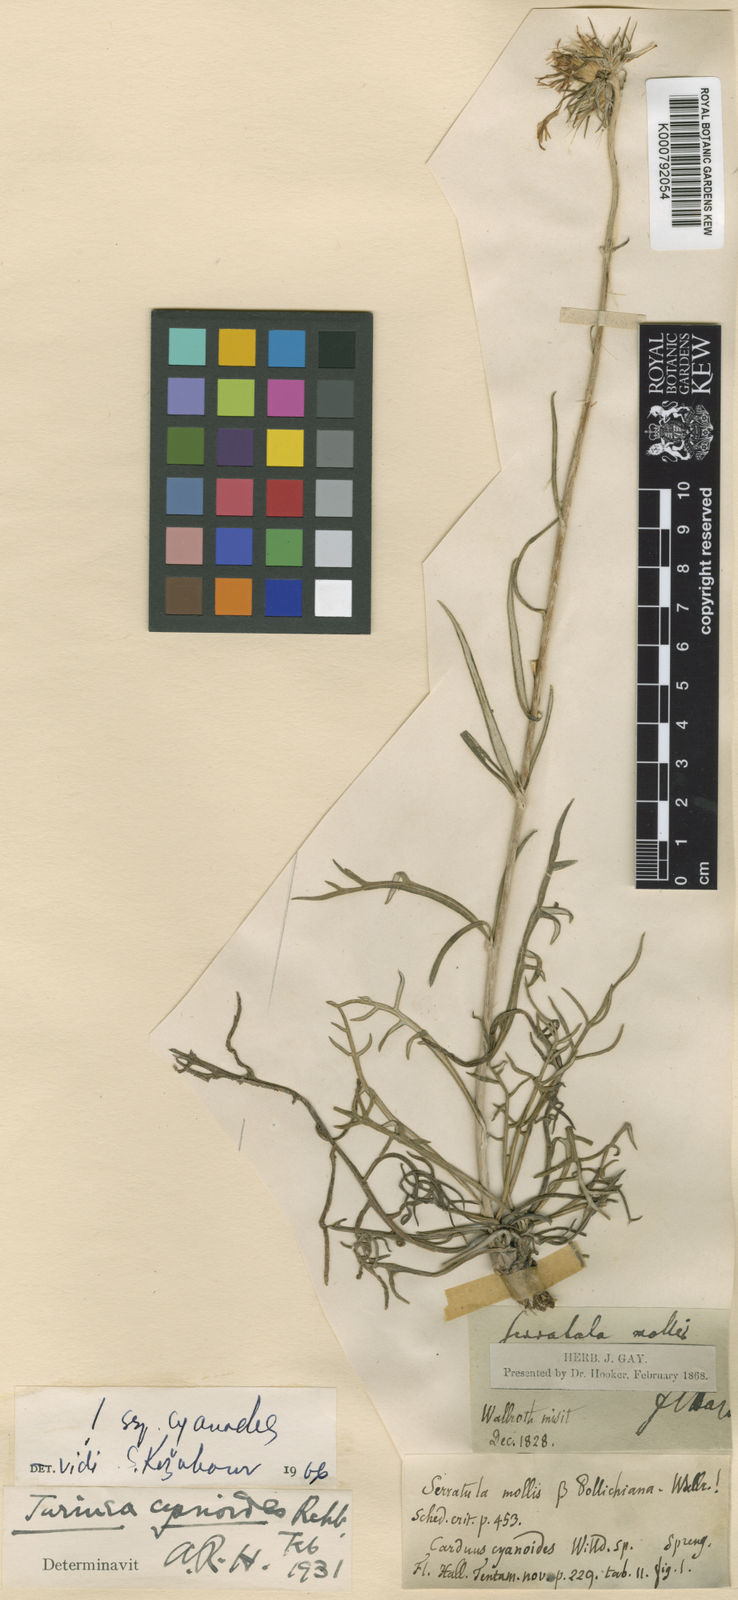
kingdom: Plantae
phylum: Tracheophyta
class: Magnoliopsida
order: Asterales
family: Asteraceae
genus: Jurinea
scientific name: Jurinea cyanoides
